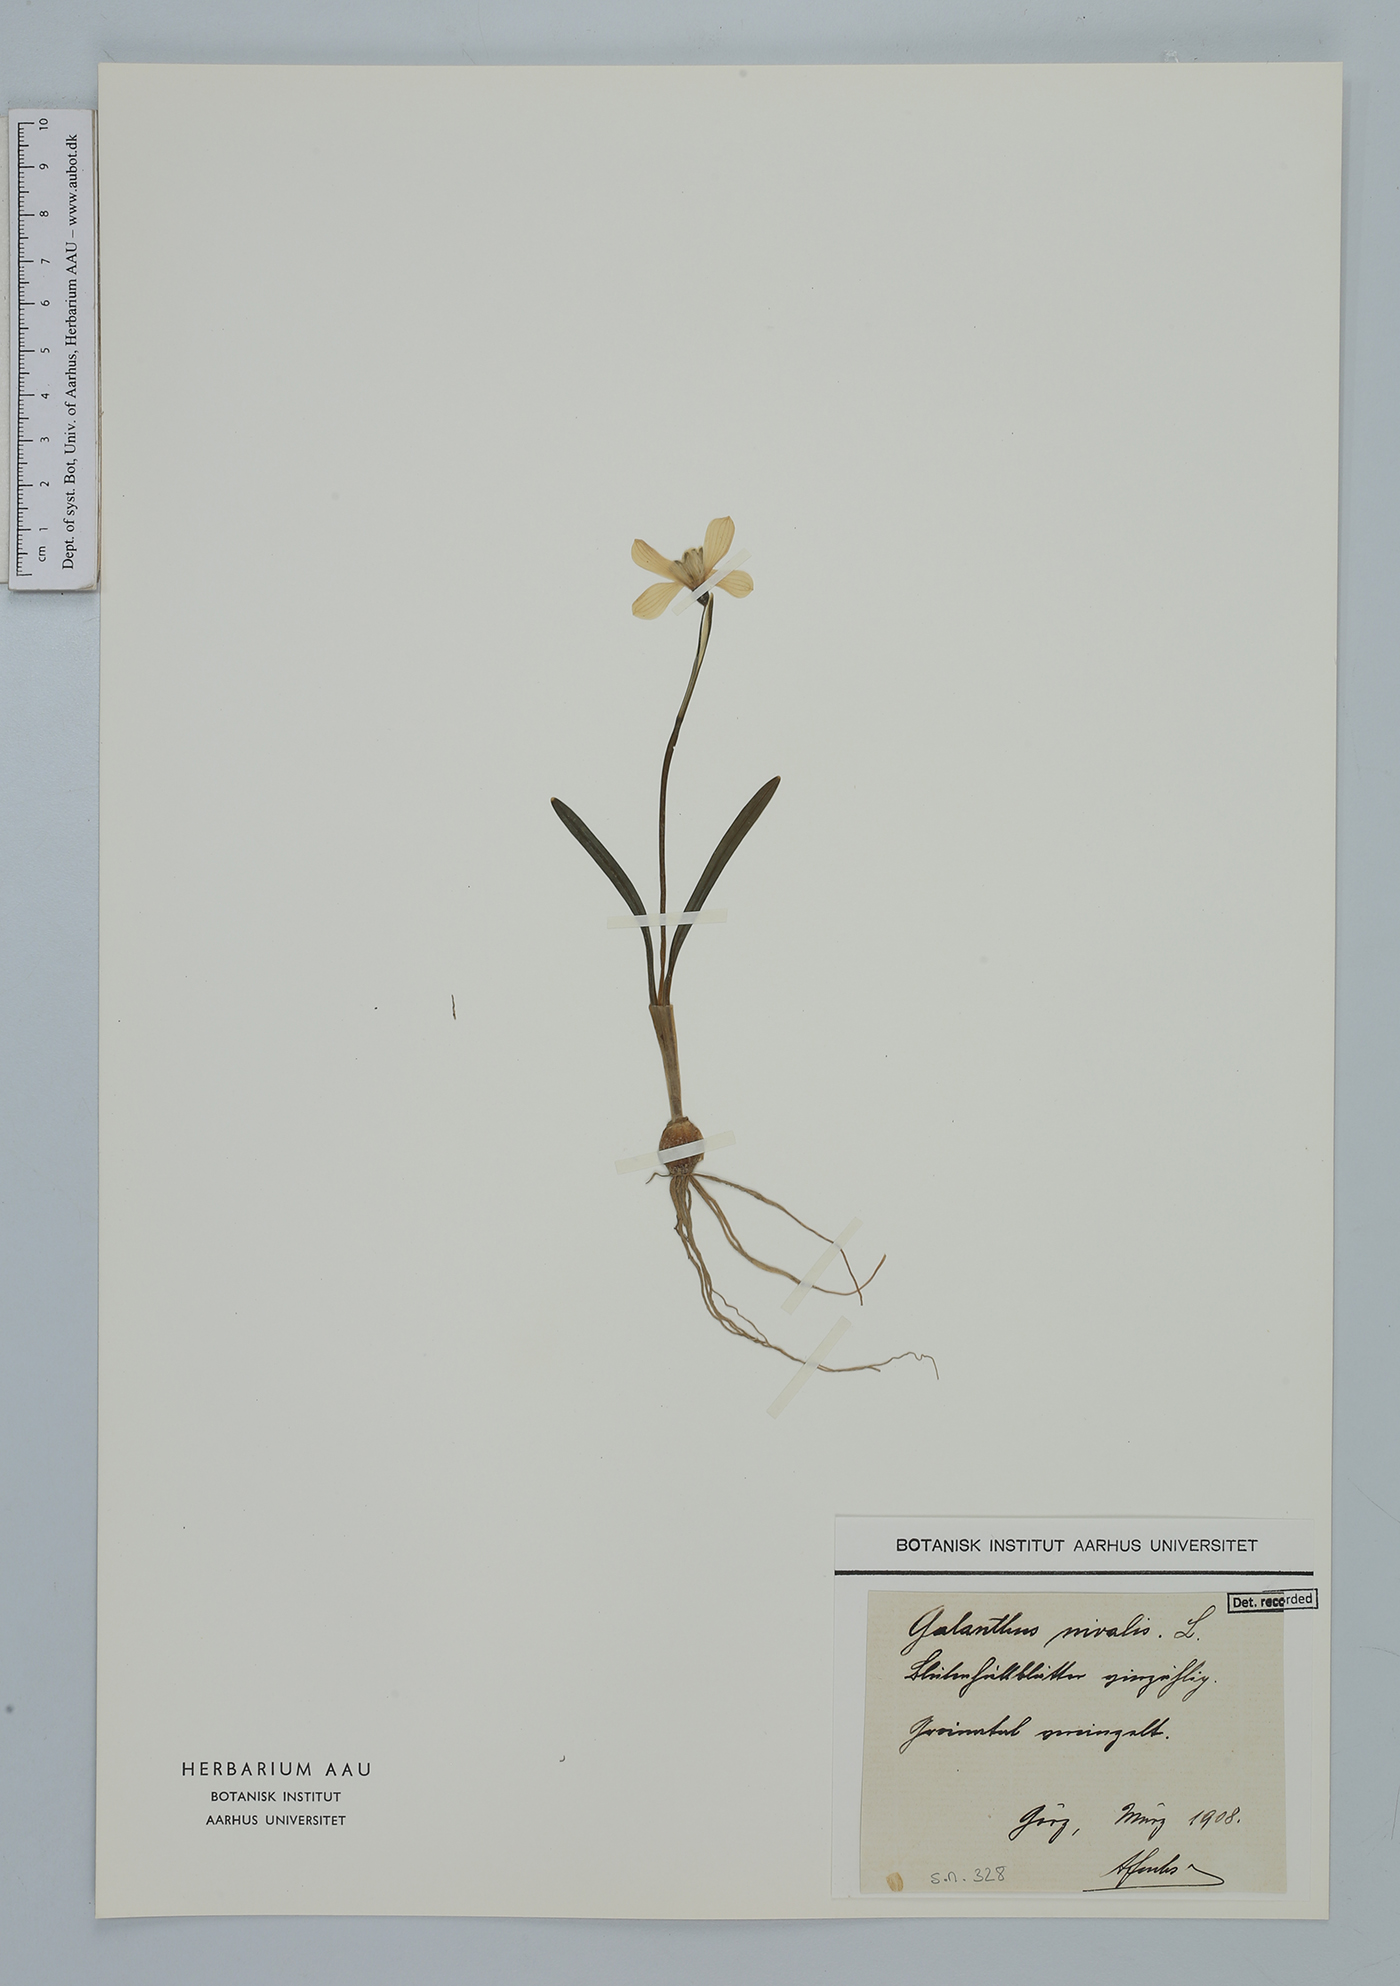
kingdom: Plantae
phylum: Tracheophyta
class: Liliopsida
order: Asparagales
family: Amaryllidaceae
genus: Galanthus
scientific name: Galanthus nivalis
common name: Snowdrop
